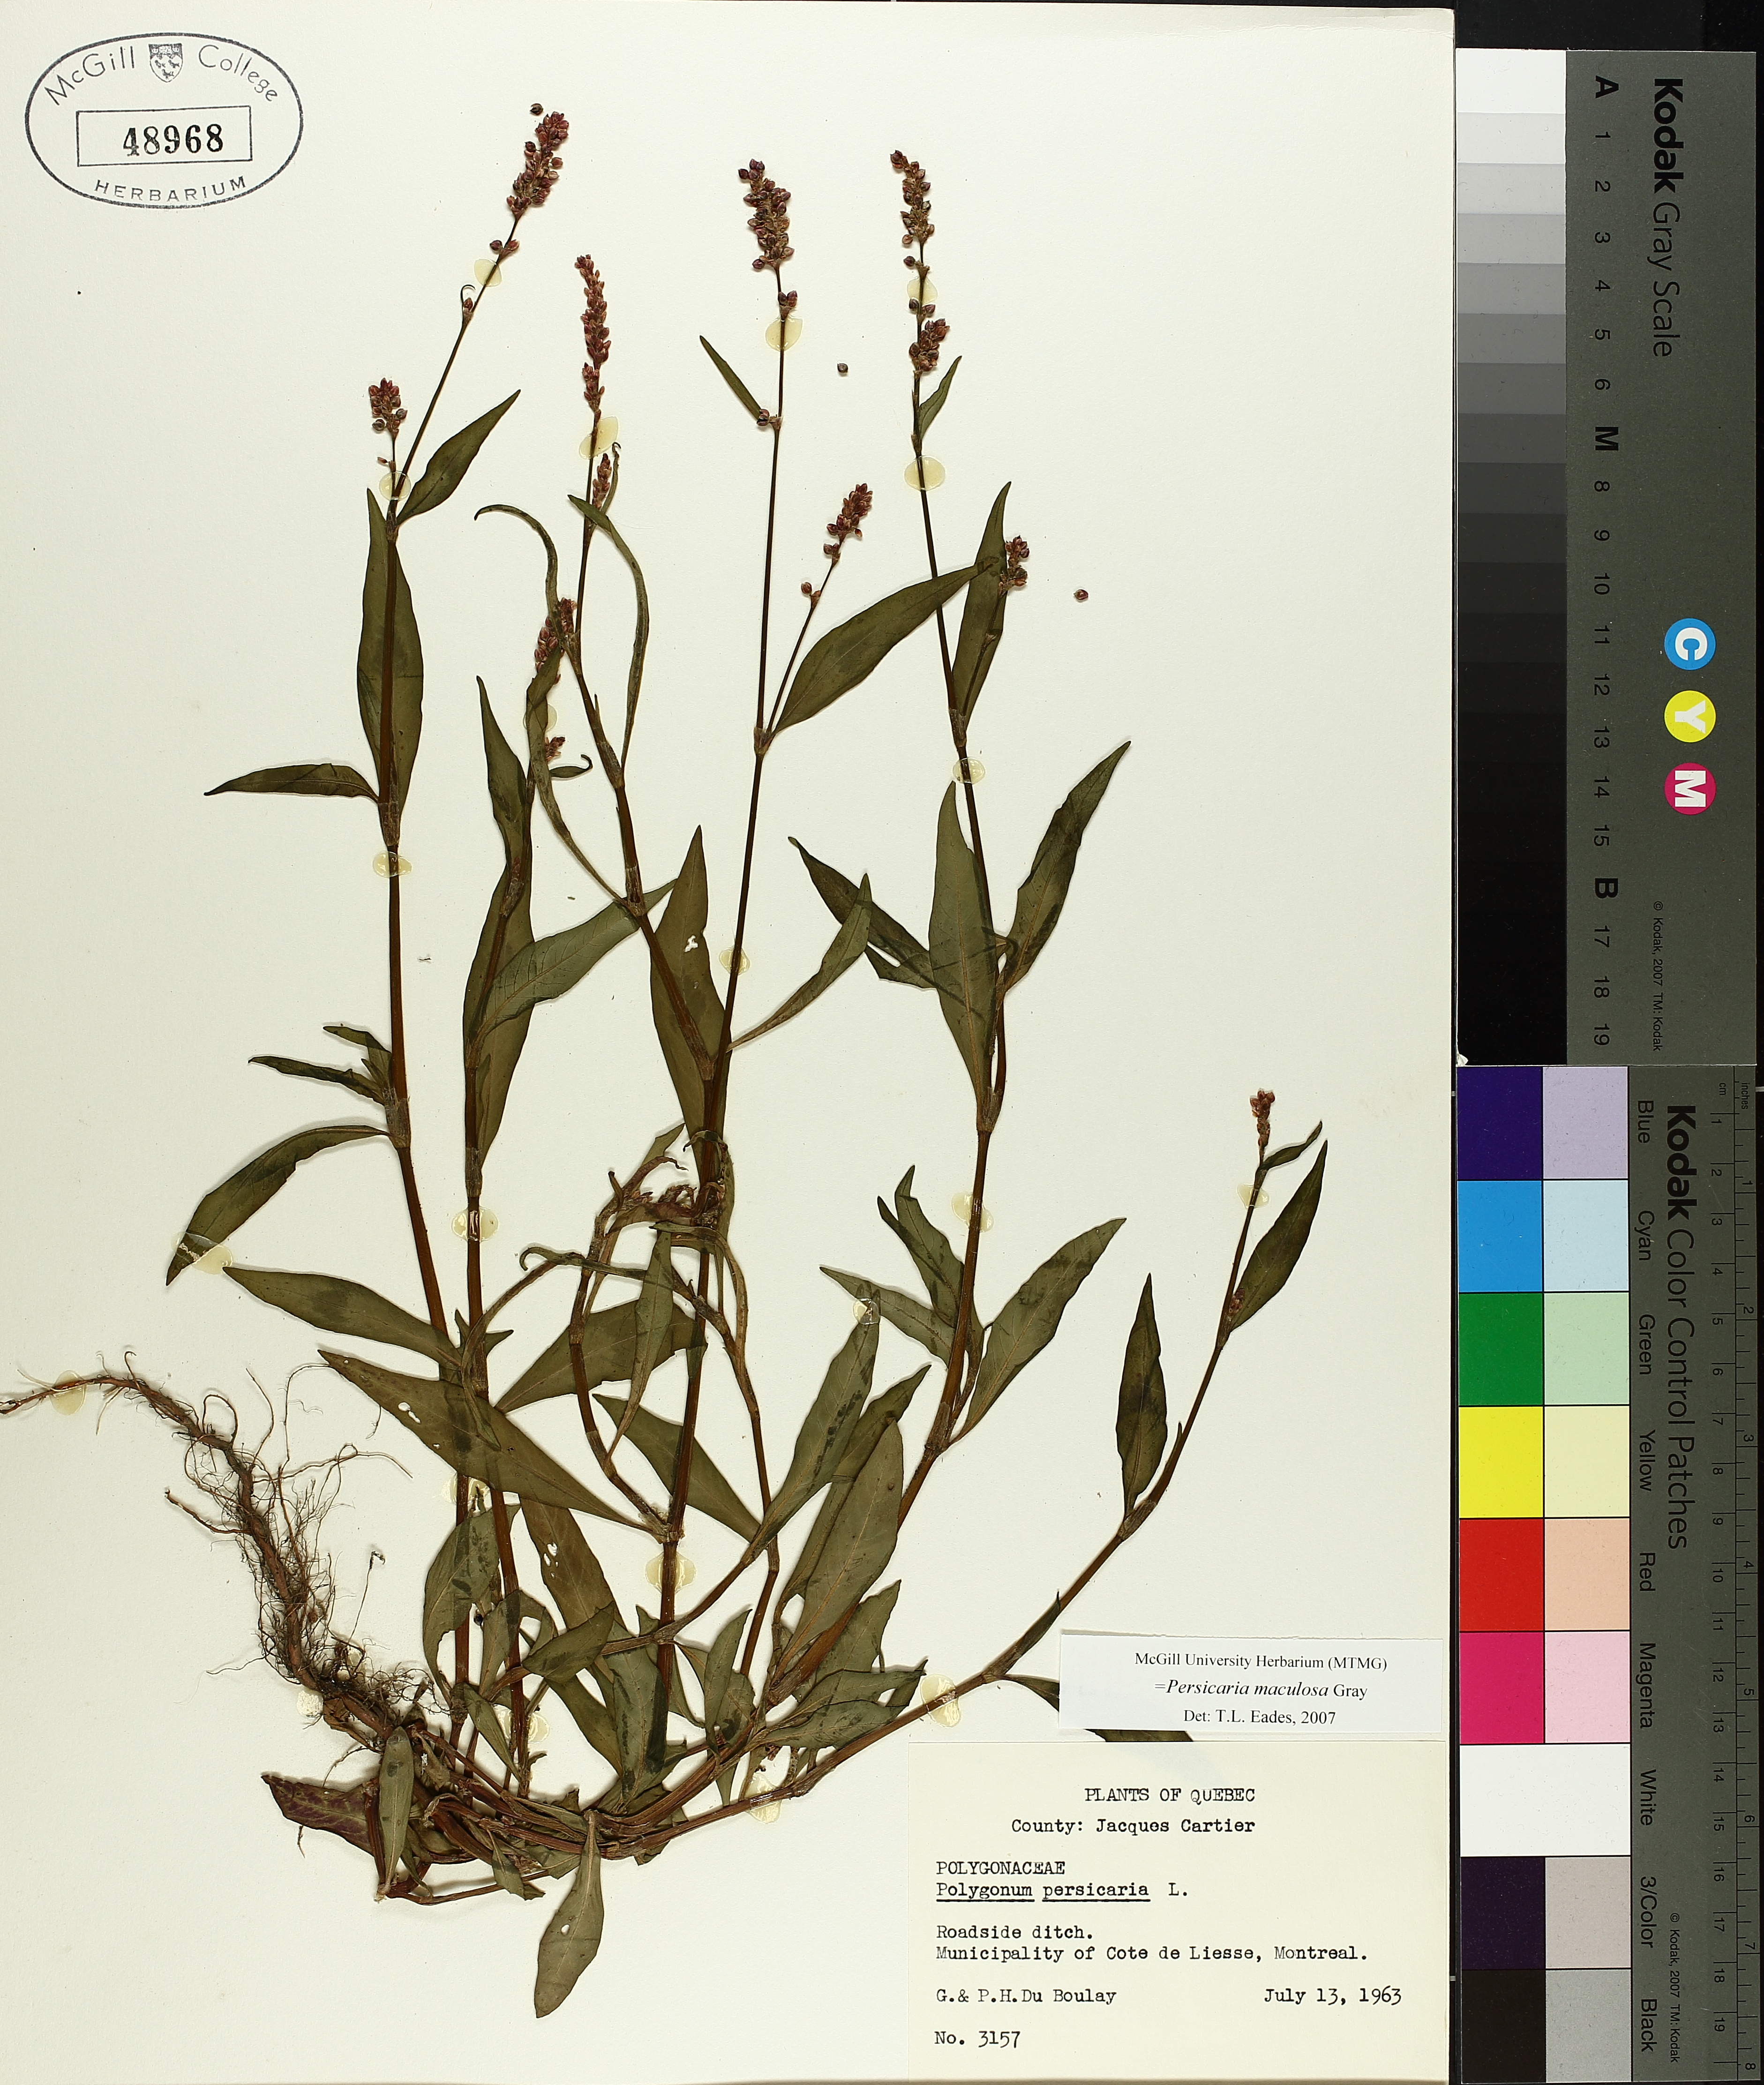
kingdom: Plantae
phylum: Tracheophyta
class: Magnoliopsida
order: Caryophyllales
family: Polygonaceae
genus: Persicaria
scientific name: Persicaria maculosa
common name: Redshank
